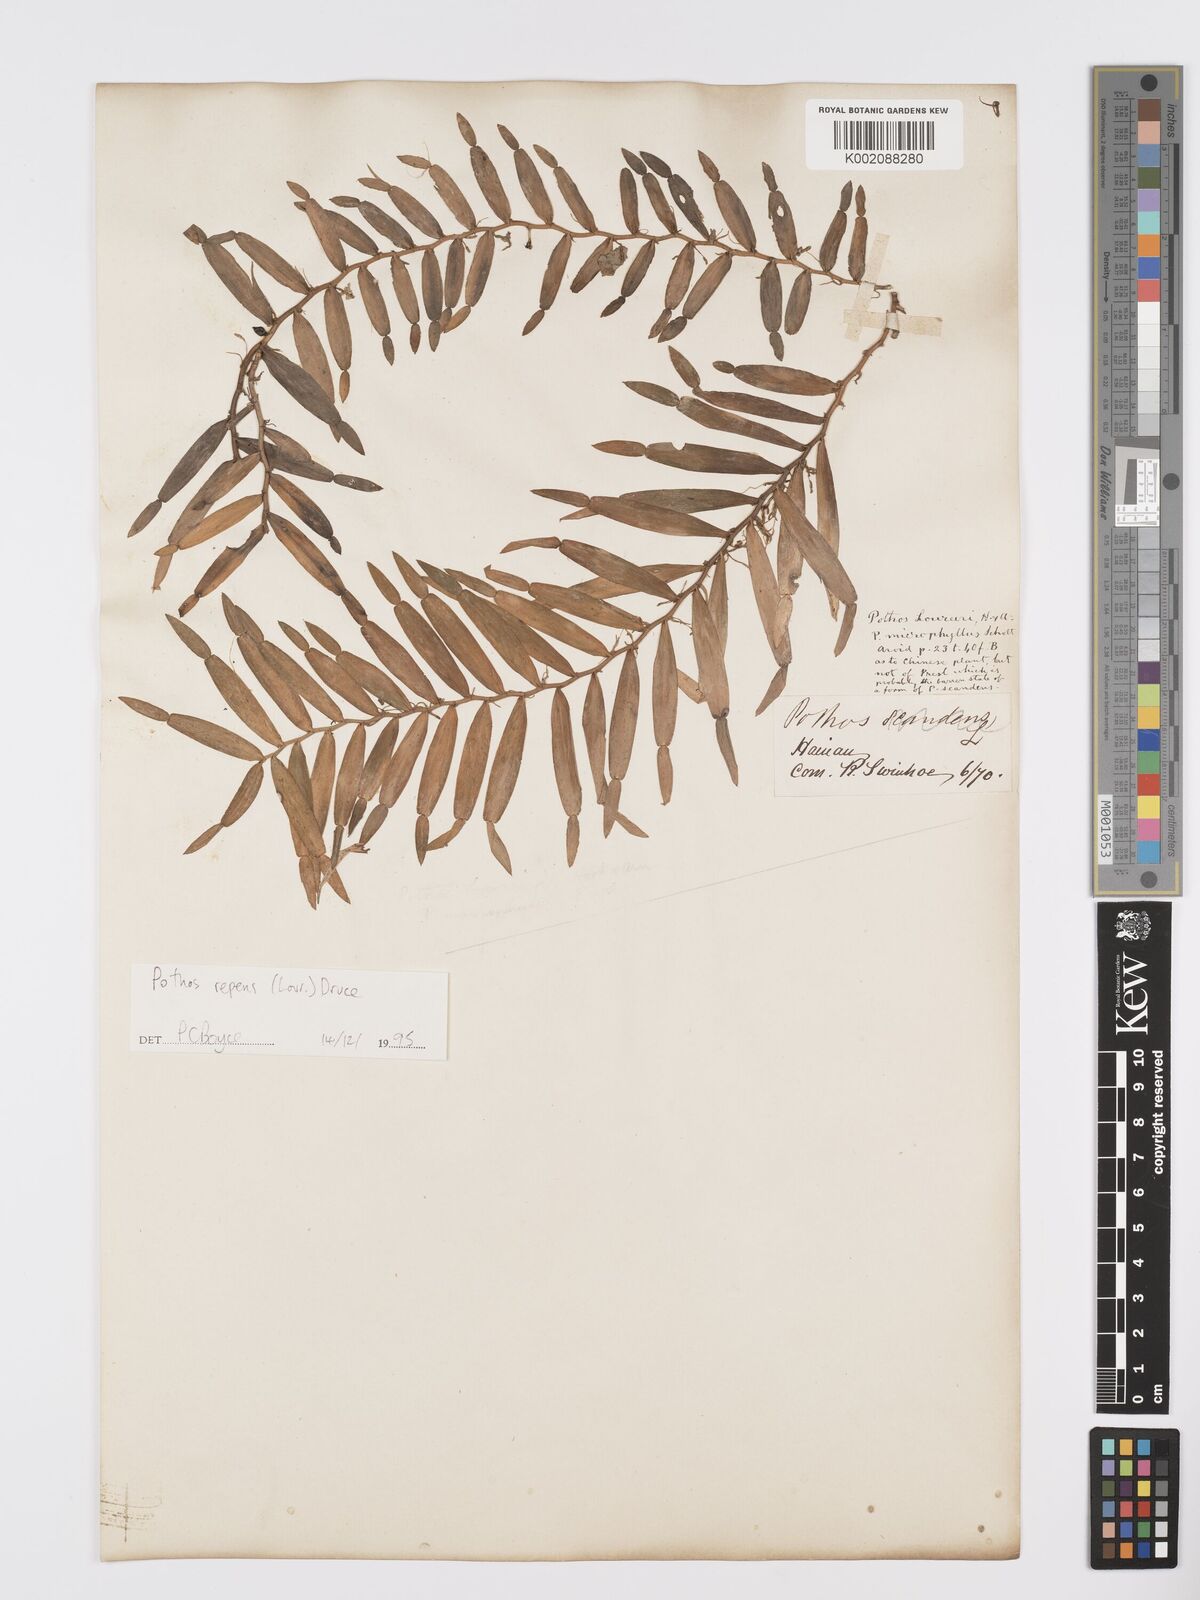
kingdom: Plantae
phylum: Tracheophyta
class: Liliopsida
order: Alismatales
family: Araceae
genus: Pothos
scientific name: Pothos repens
